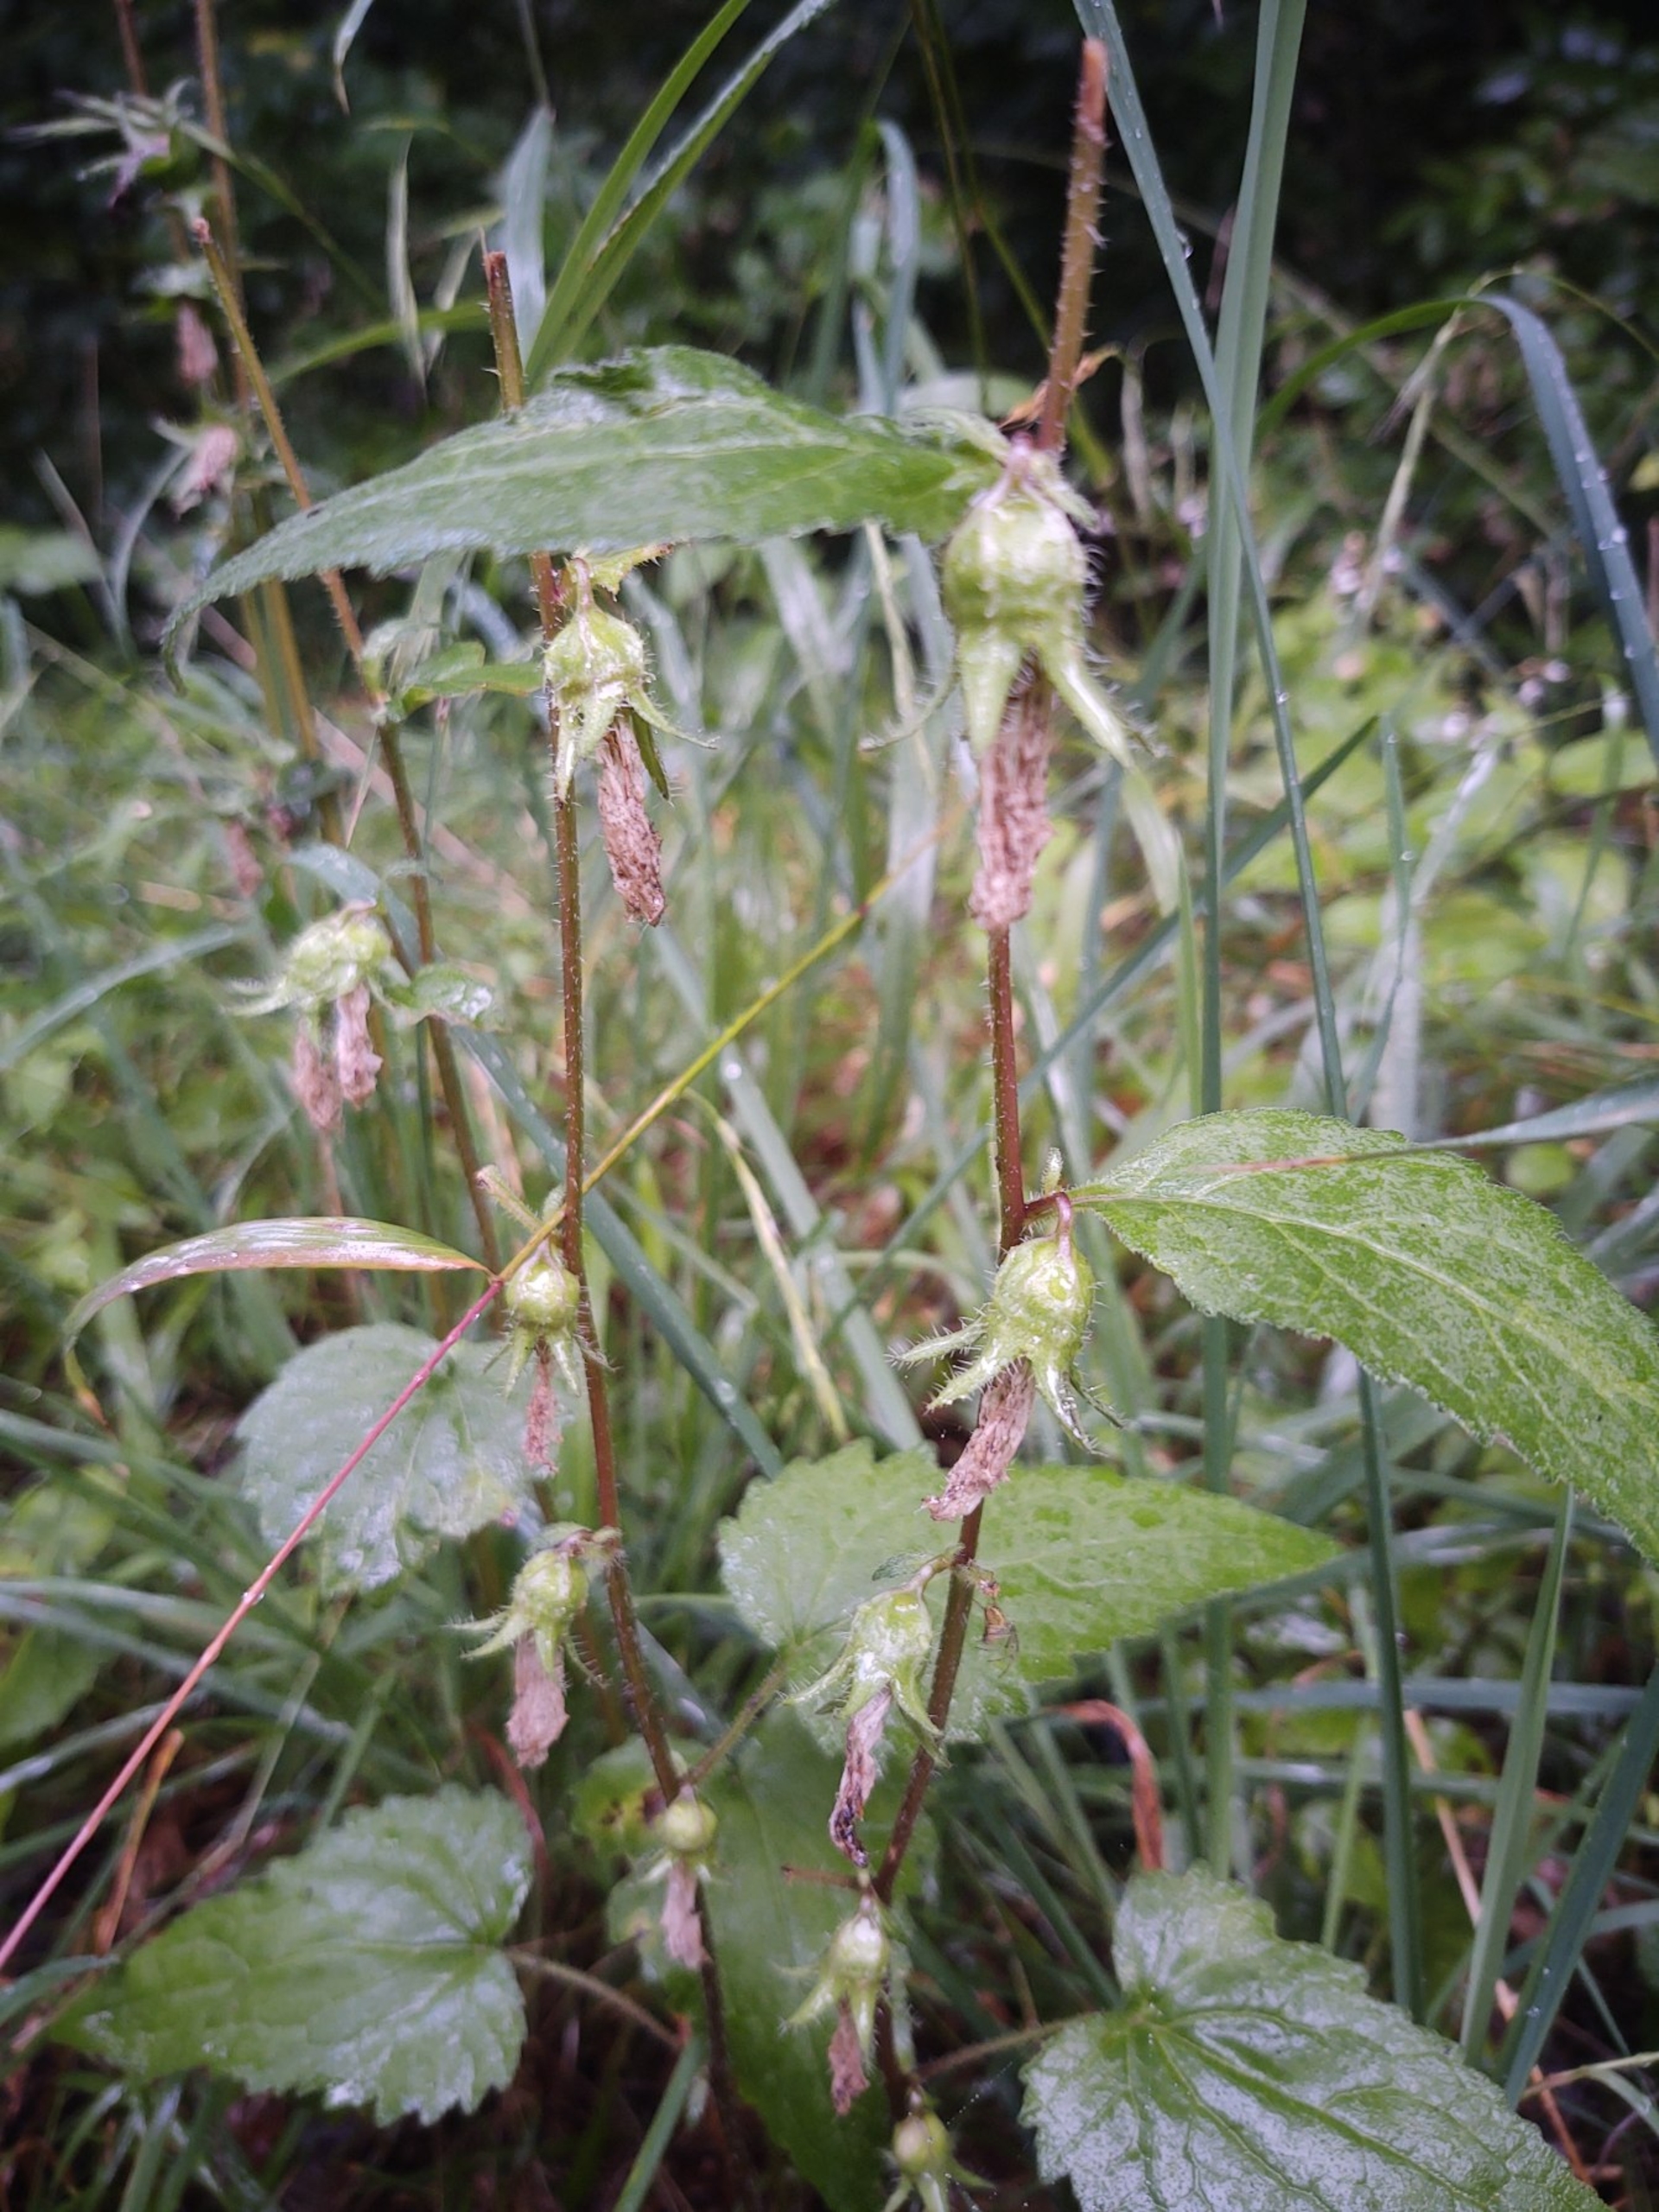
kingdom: Plantae
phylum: Tracheophyta
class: Magnoliopsida
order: Asterales
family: Campanulaceae
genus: Campanula
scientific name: Campanula trachelium
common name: Nælde-klokke
